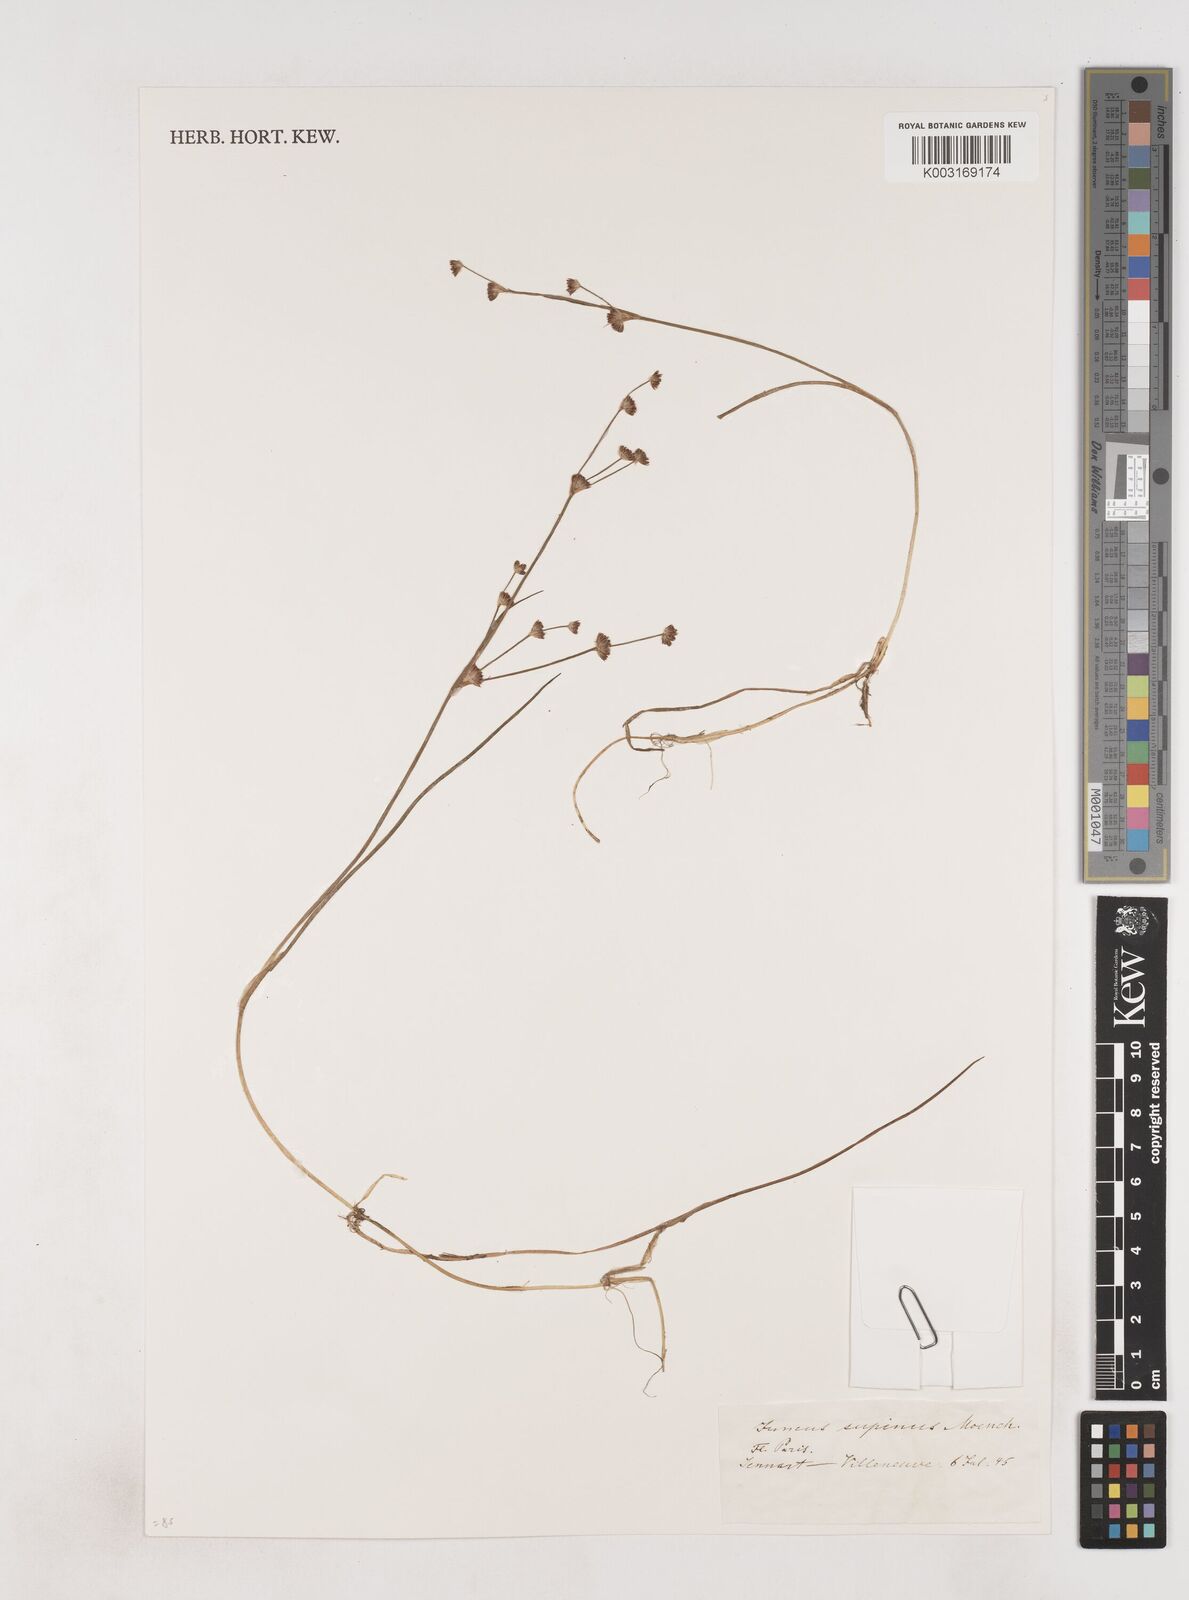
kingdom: Plantae
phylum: Tracheophyta
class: Liliopsida
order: Poales
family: Juncaceae
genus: Juncus
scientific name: Juncus bulbosus
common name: Bulbous rush
